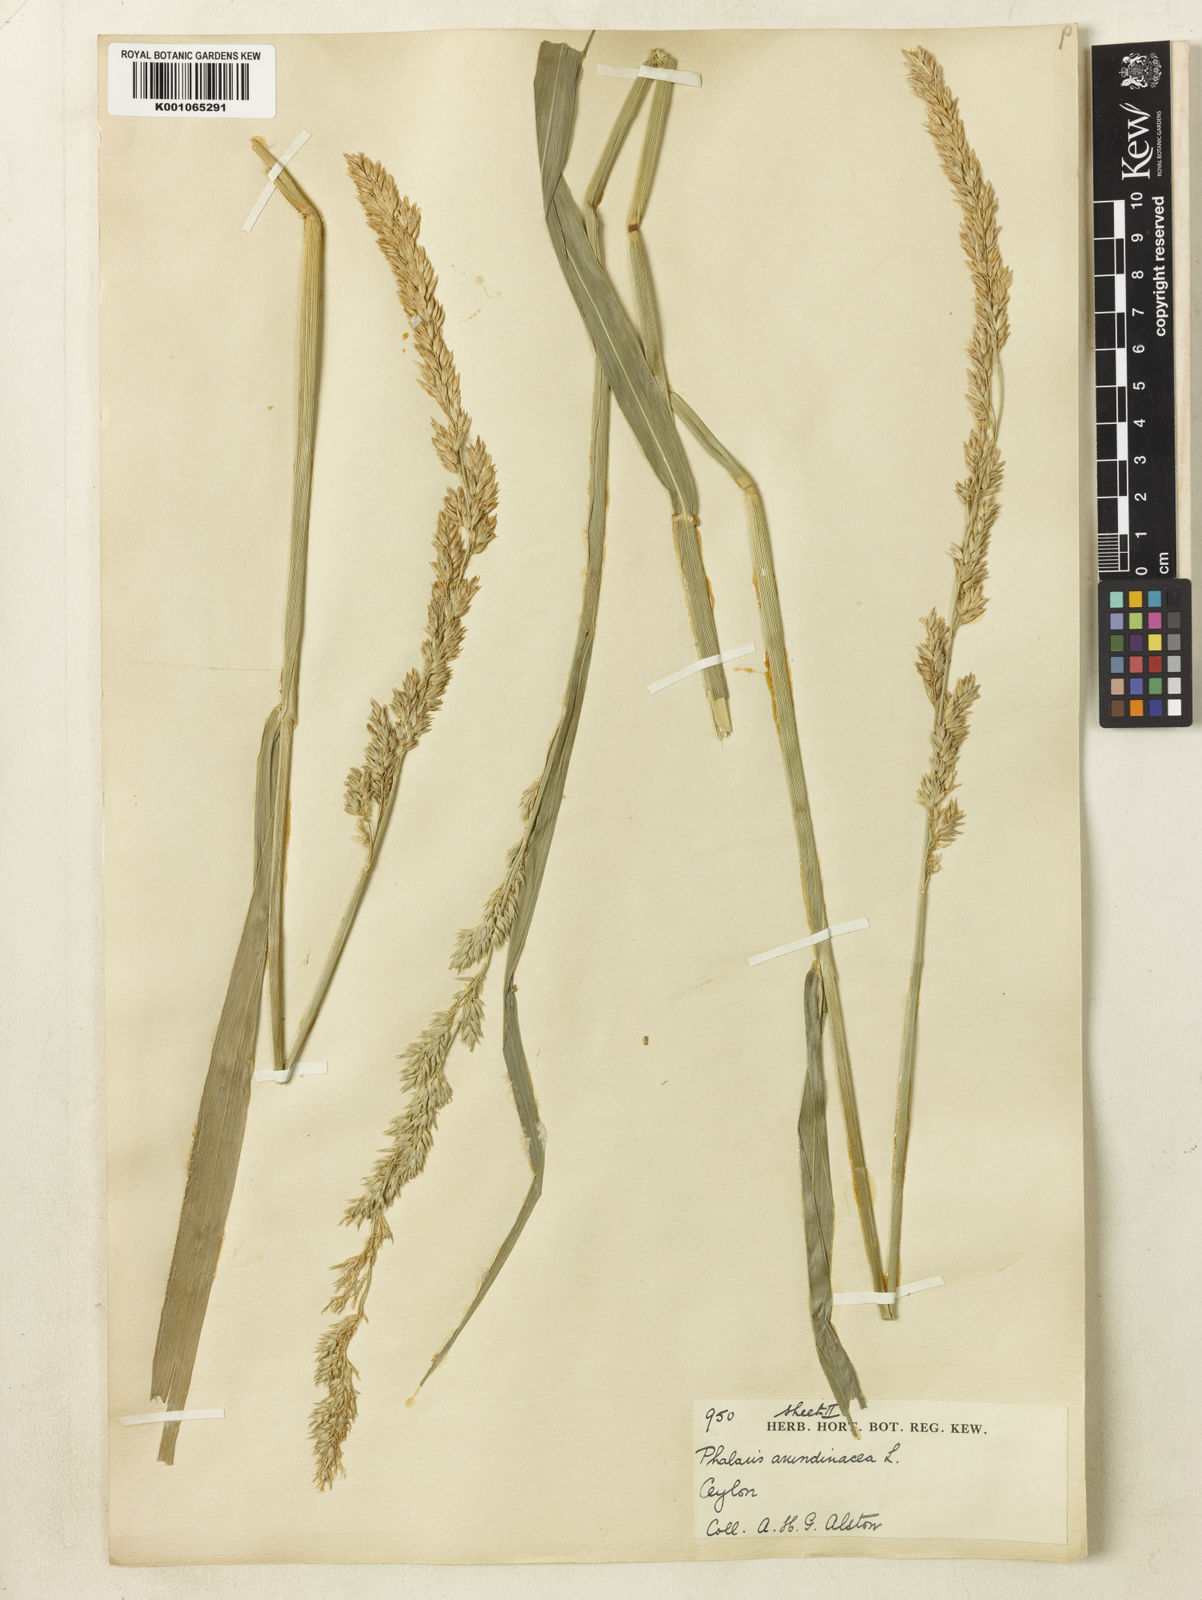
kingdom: Plantae
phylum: Tracheophyta
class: Liliopsida
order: Poales
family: Poaceae
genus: Phalaris
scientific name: Phalaris arundinacea
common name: Reed canary-grass
